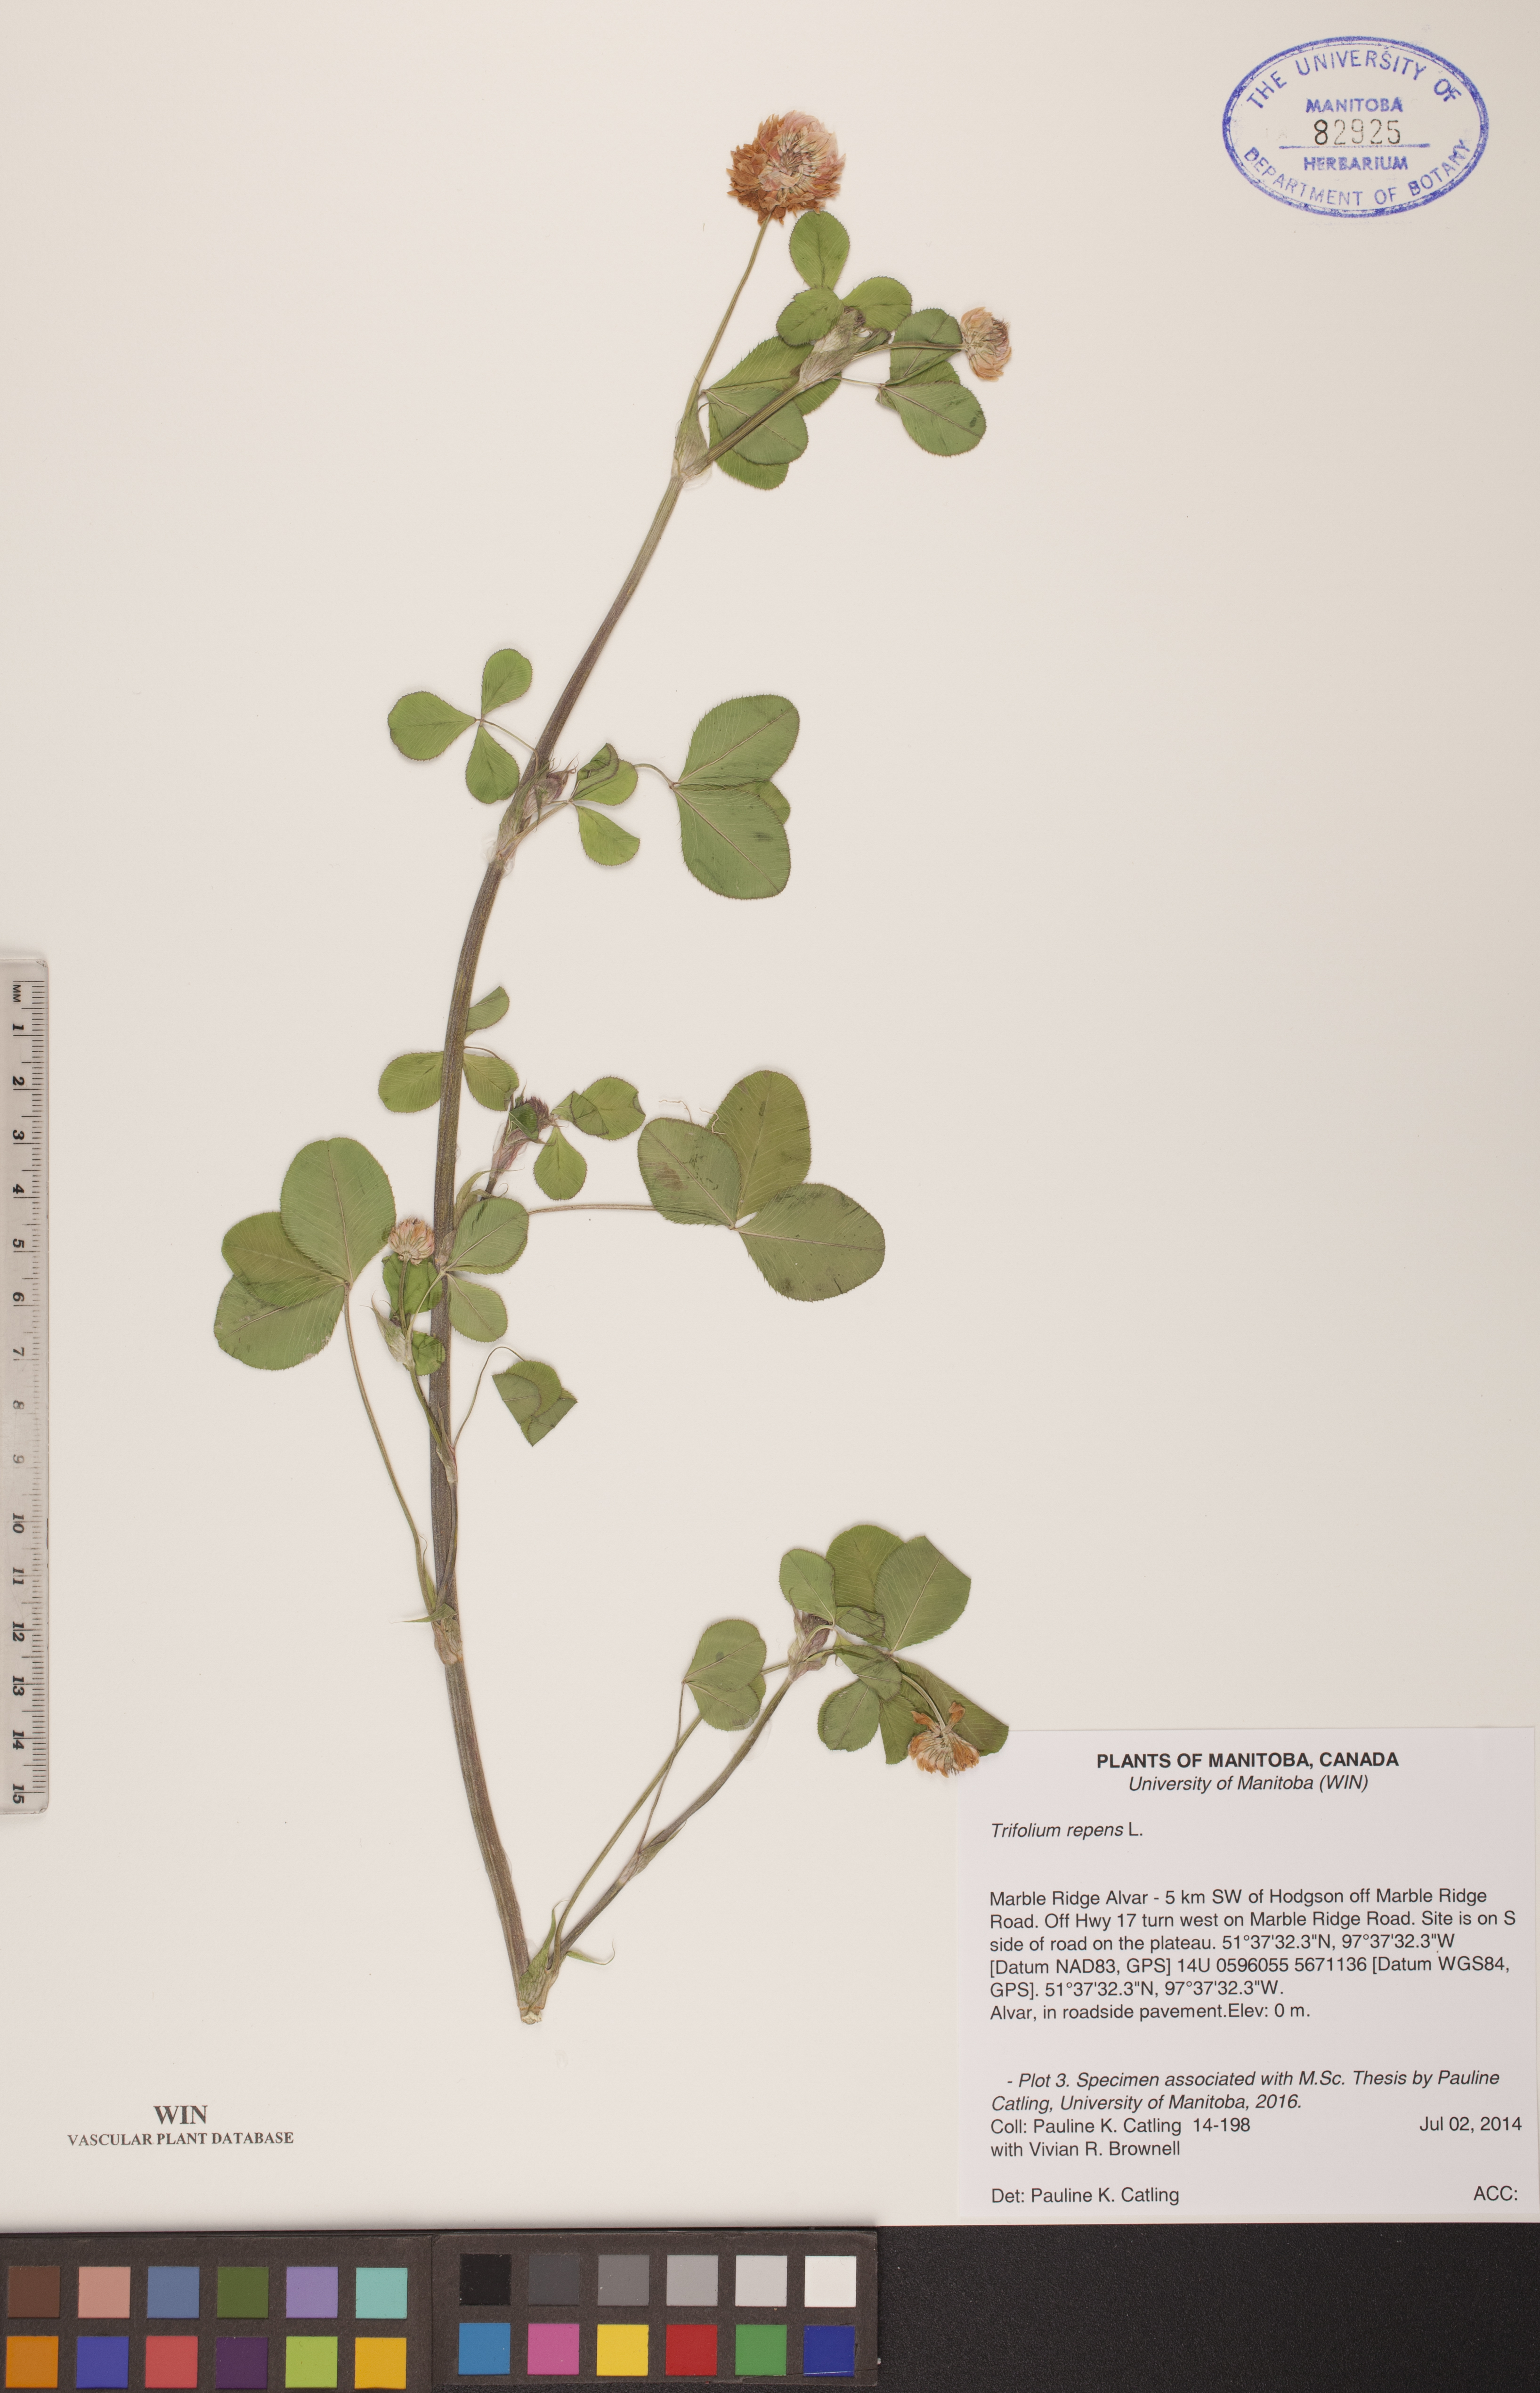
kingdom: Plantae
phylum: Tracheophyta
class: Magnoliopsida
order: Fabales
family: Fabaceae
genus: Trifolium
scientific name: Trifolium hybridum
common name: Alsike clover
